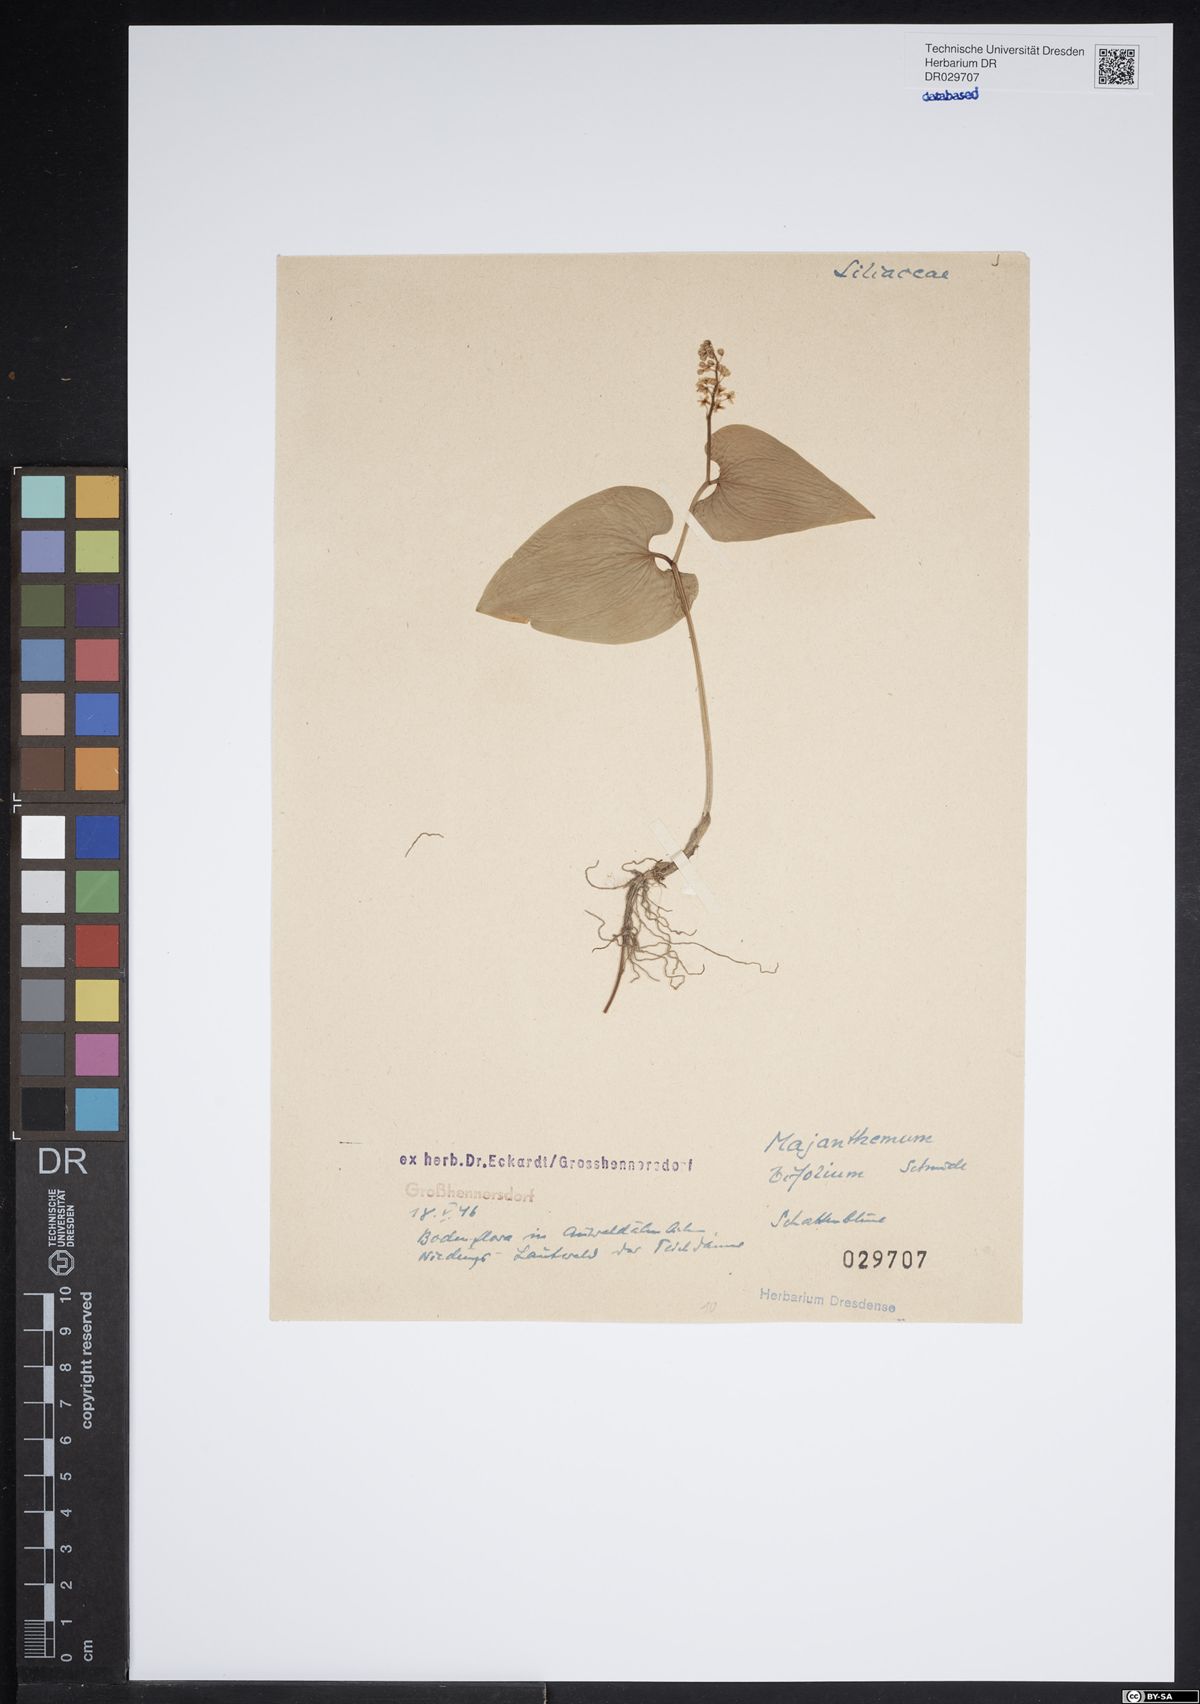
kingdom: Plantae
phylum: Tracheophyta
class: Liliopsida
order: Asparagales
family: Asparagaceae
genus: Maianthemum
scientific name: Maianthemum bifolium
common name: May lily
